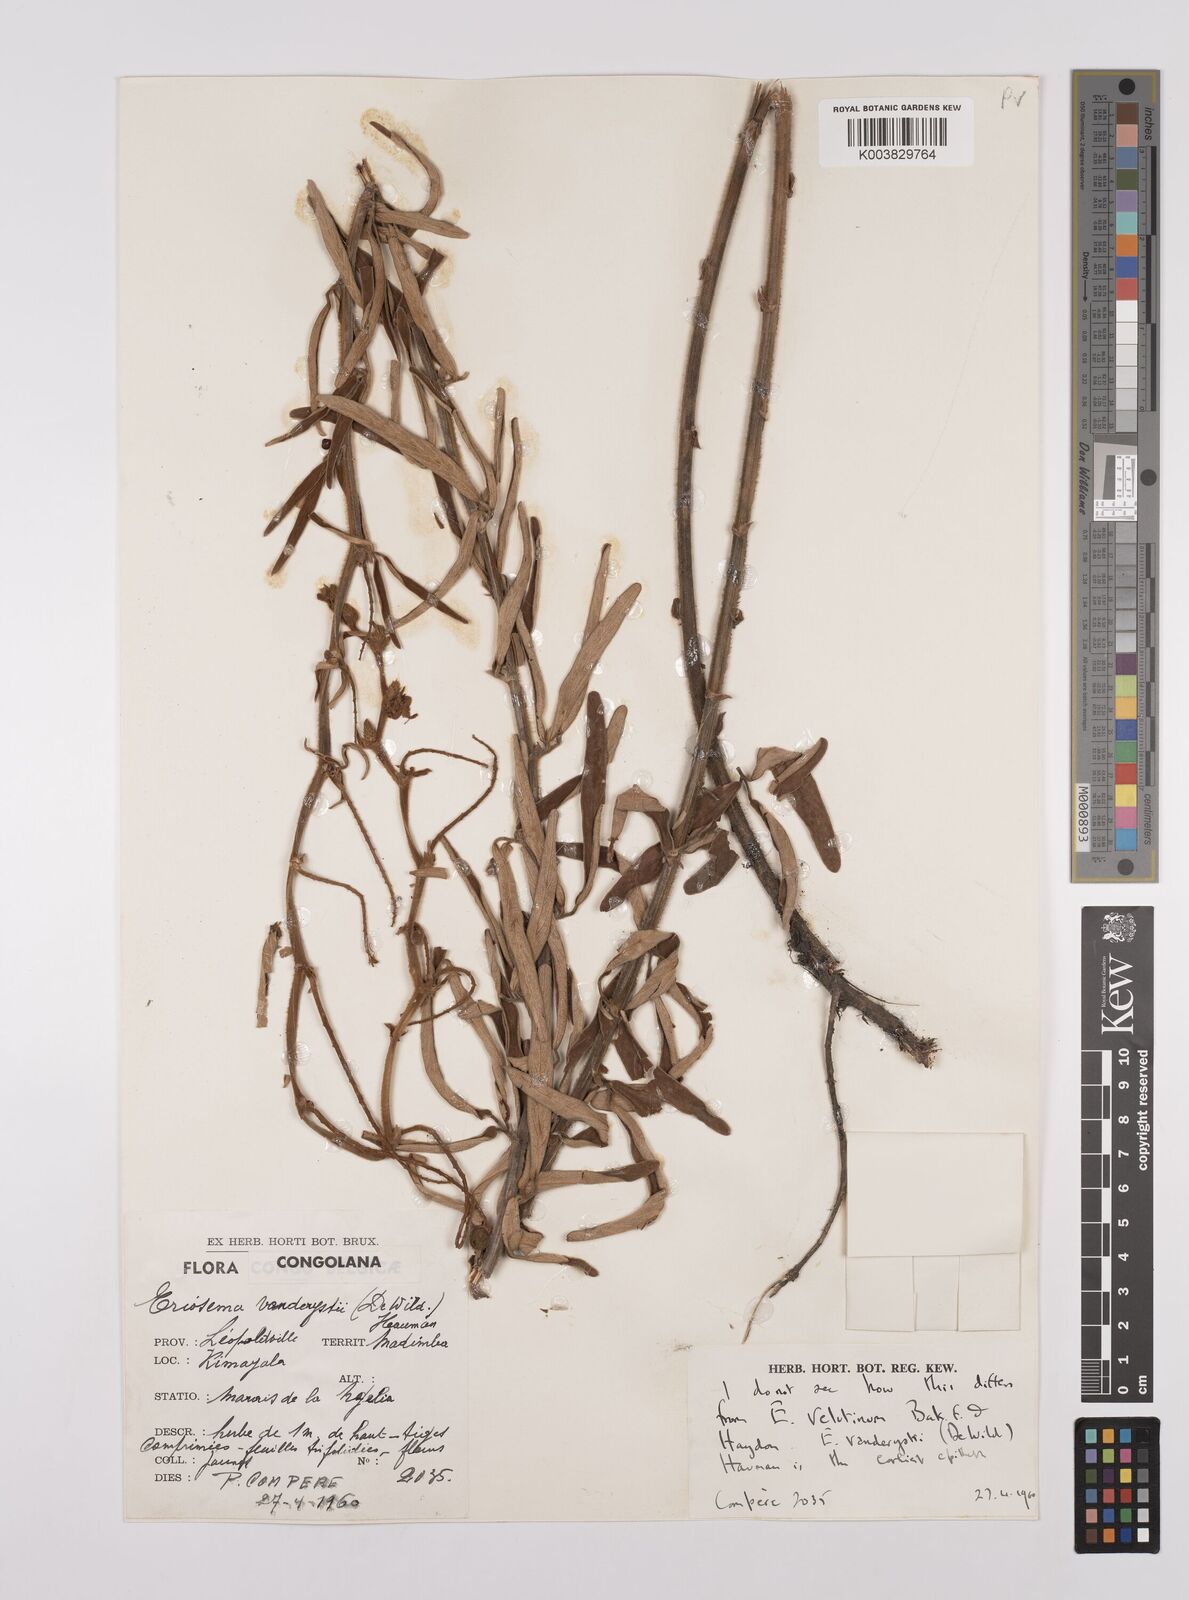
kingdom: Plantae
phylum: Tracheophyta
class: Magnoliopsida
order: Fabales
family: Fabaceae
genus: Eriosema
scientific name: Eriosema vanderystii
